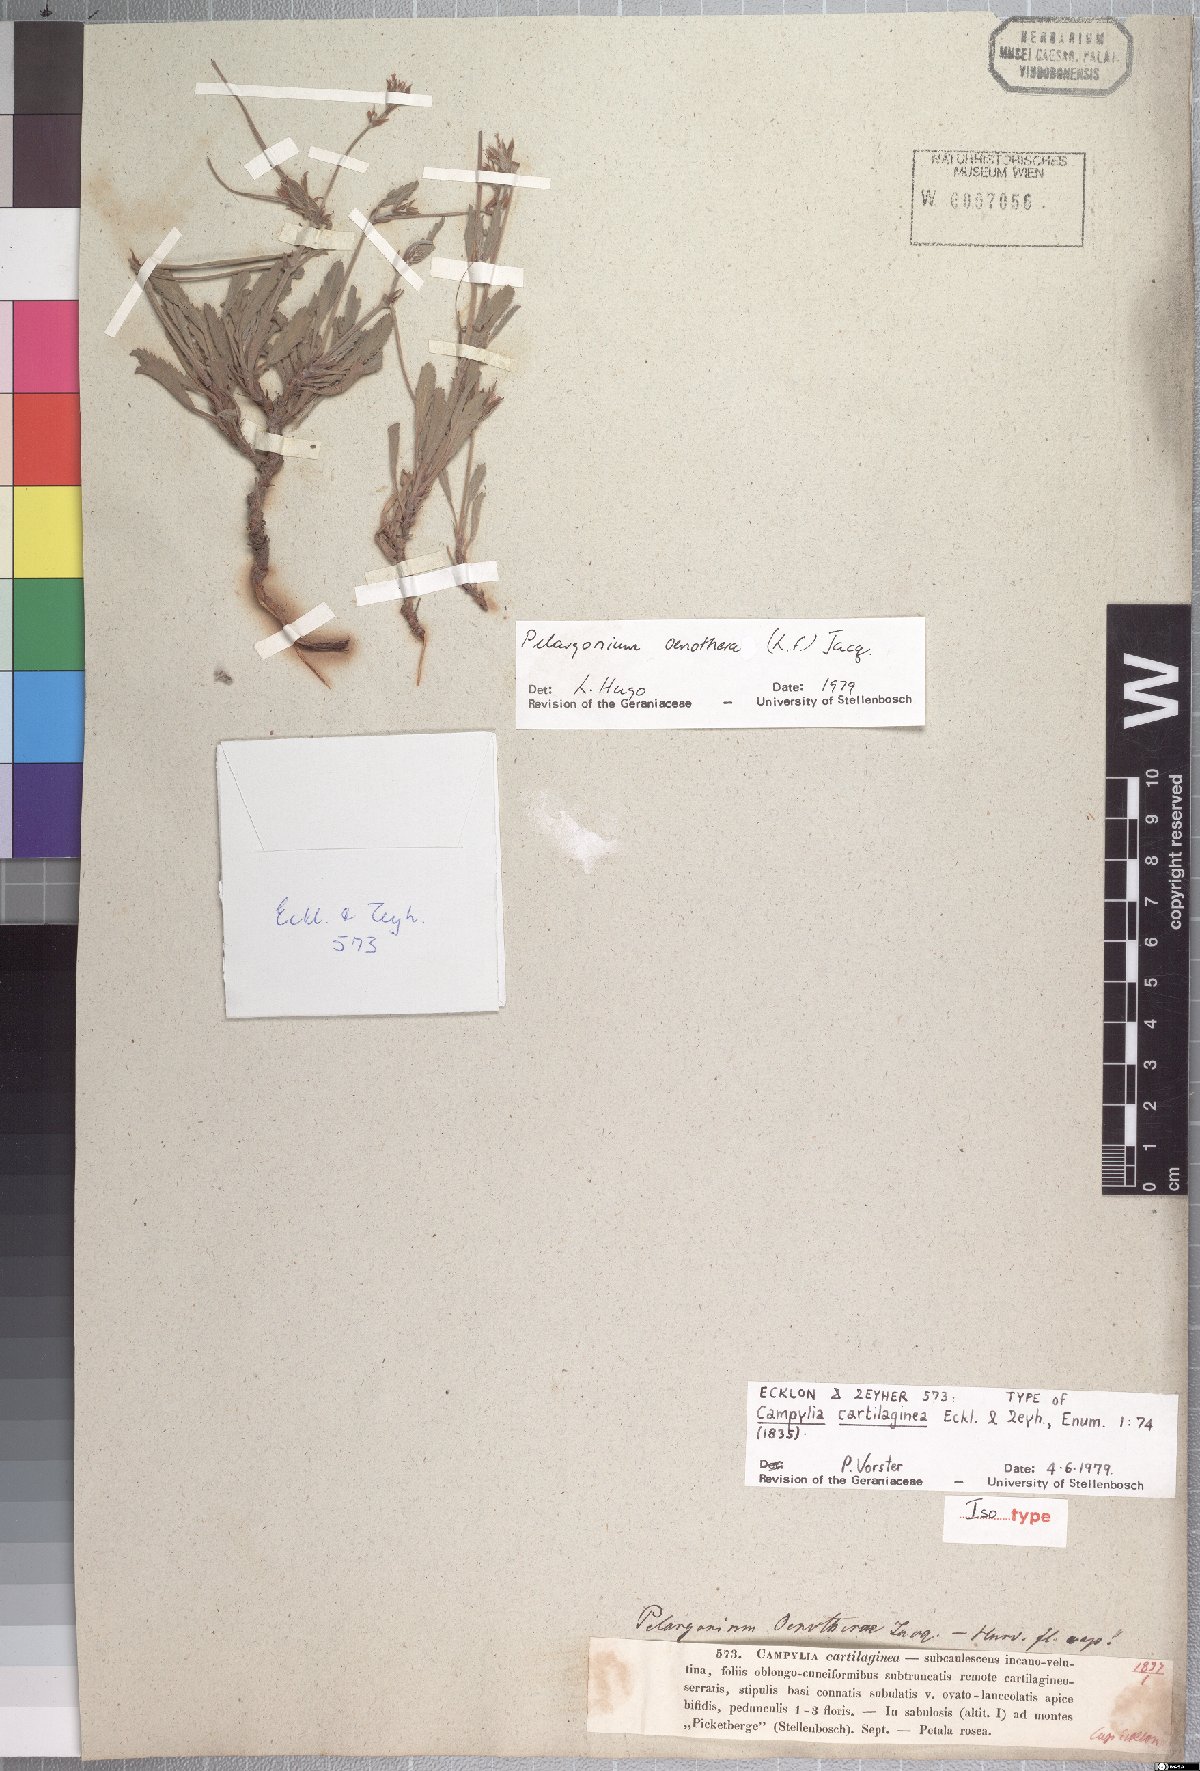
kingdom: Plantae
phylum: Tracheophyta
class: Magnoliopsida
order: Geraniales
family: Geraniaceae
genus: Pelargonium
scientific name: Pelargonium oenotherae
